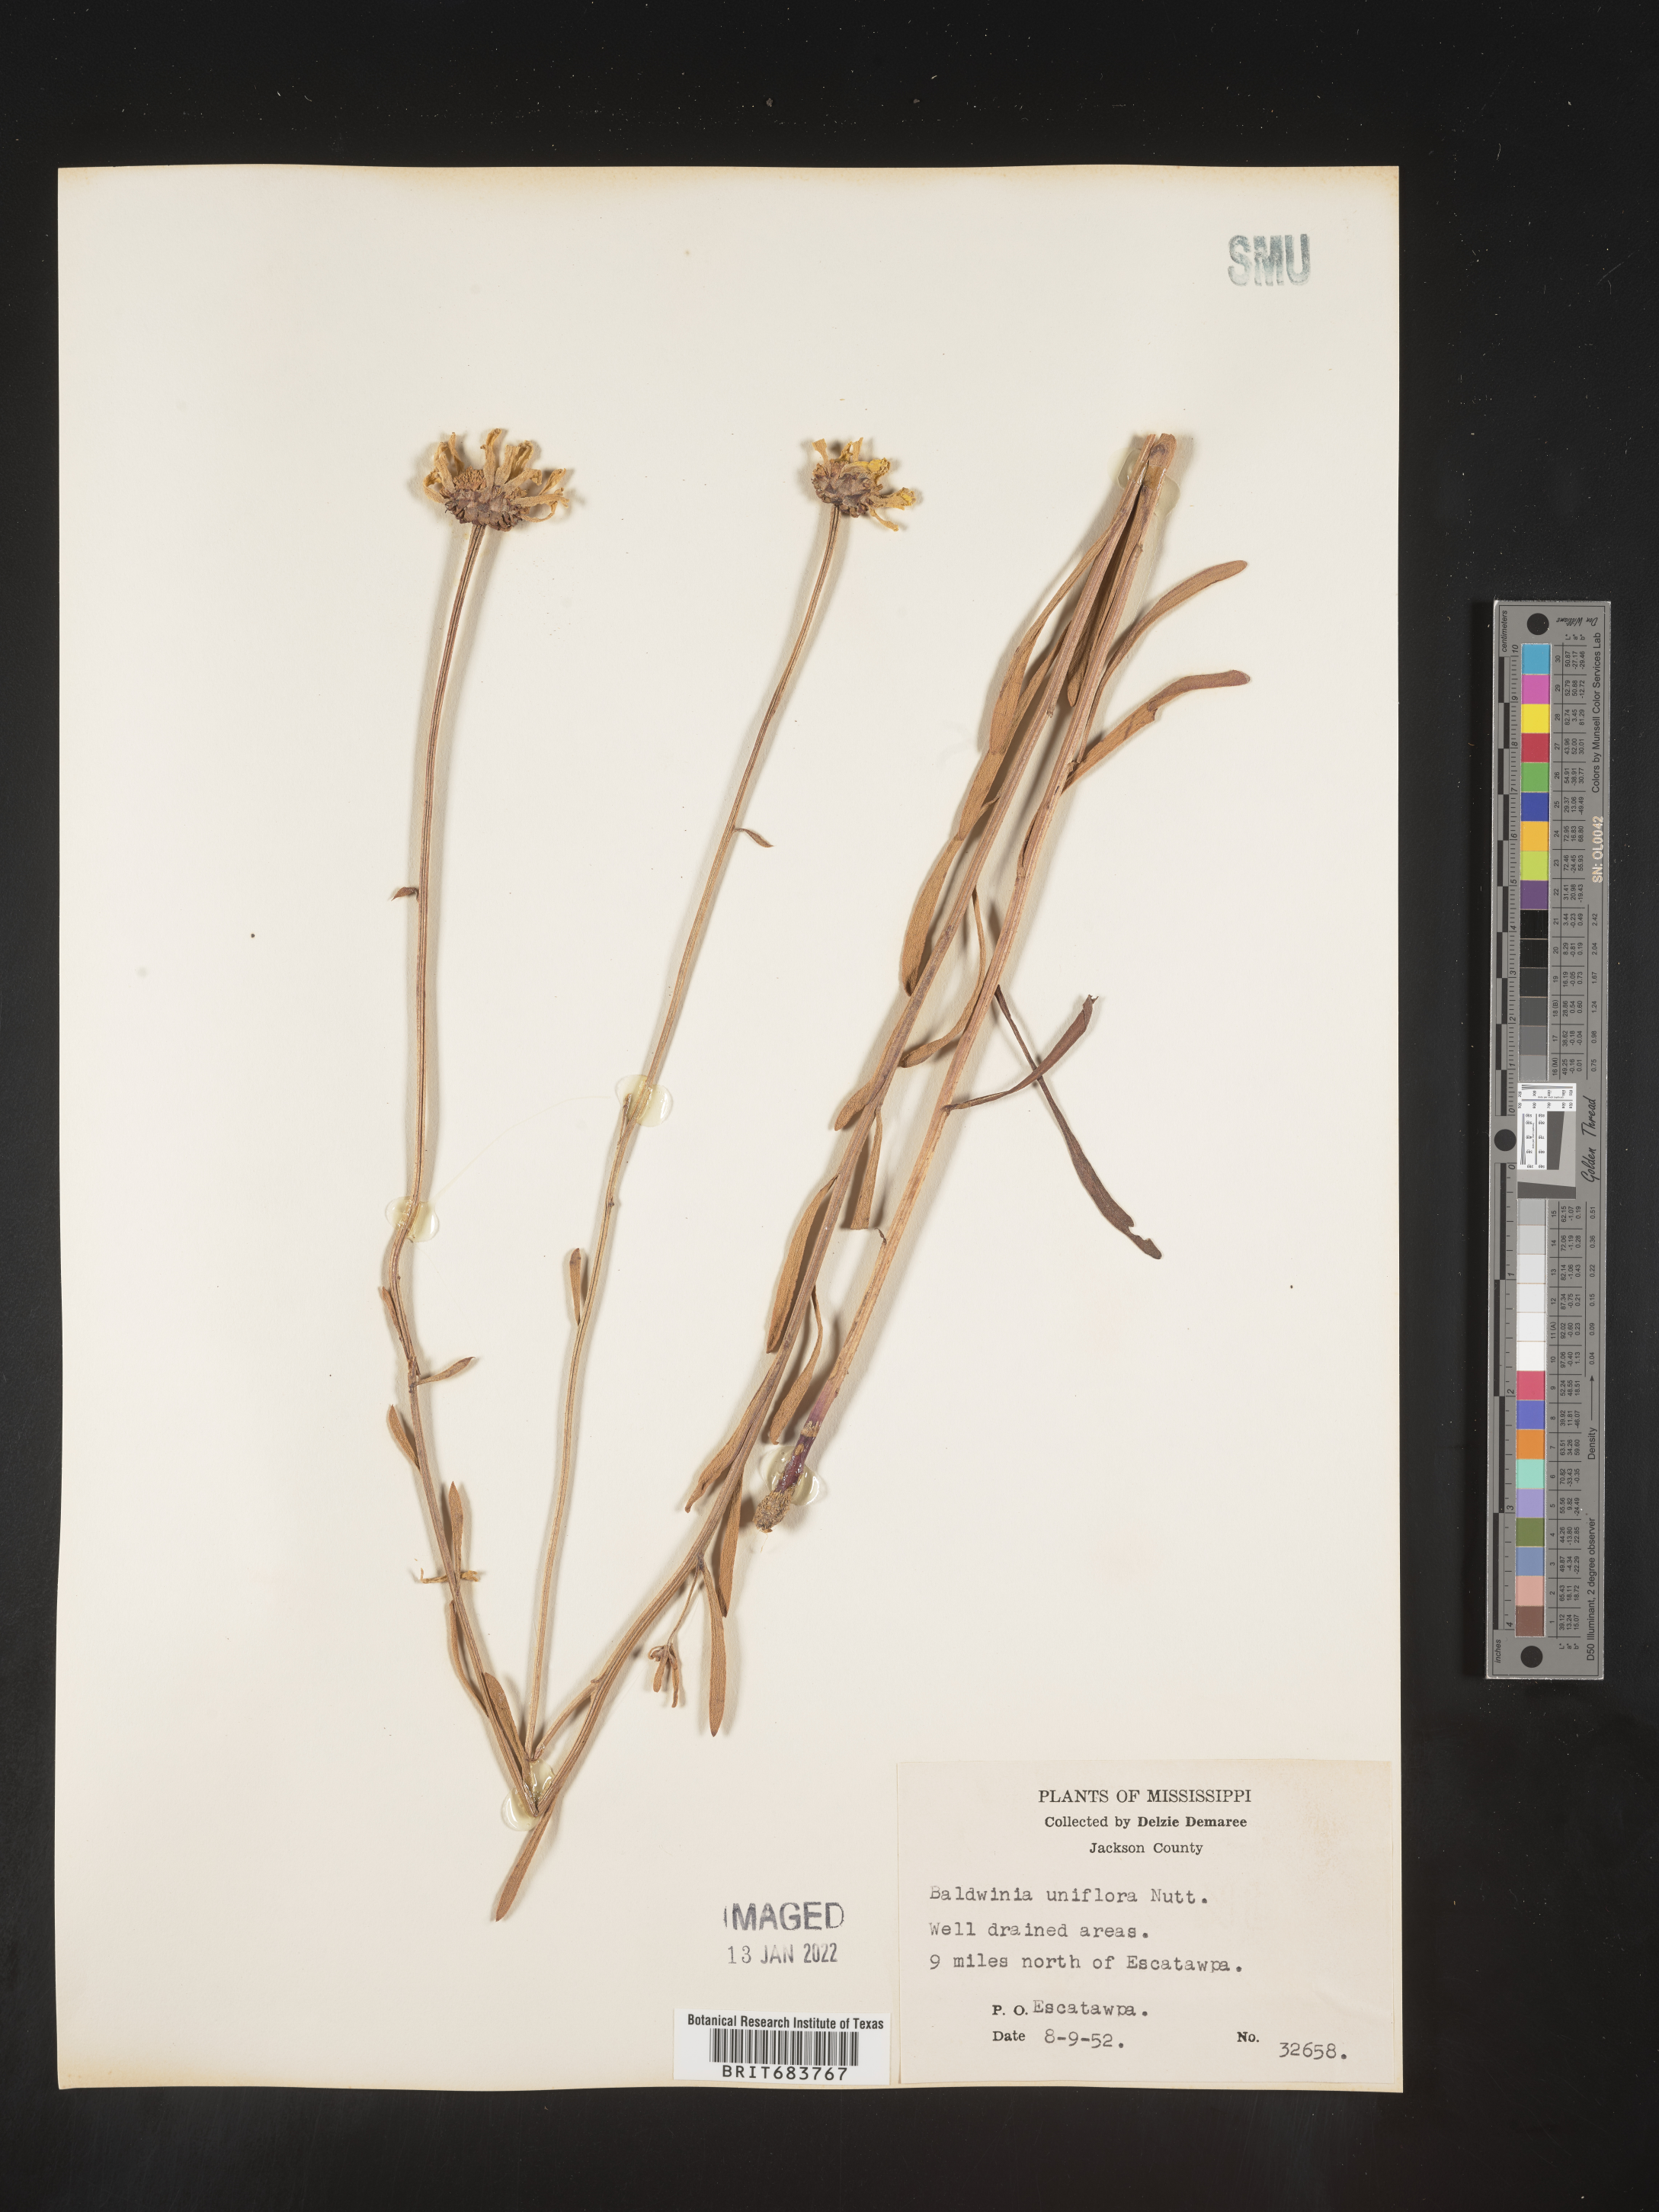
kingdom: Plantae
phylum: Tracheophyta
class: Magnoliopsida
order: Asterales
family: Asteraceae
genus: Balduina
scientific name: Balduina uniflora
